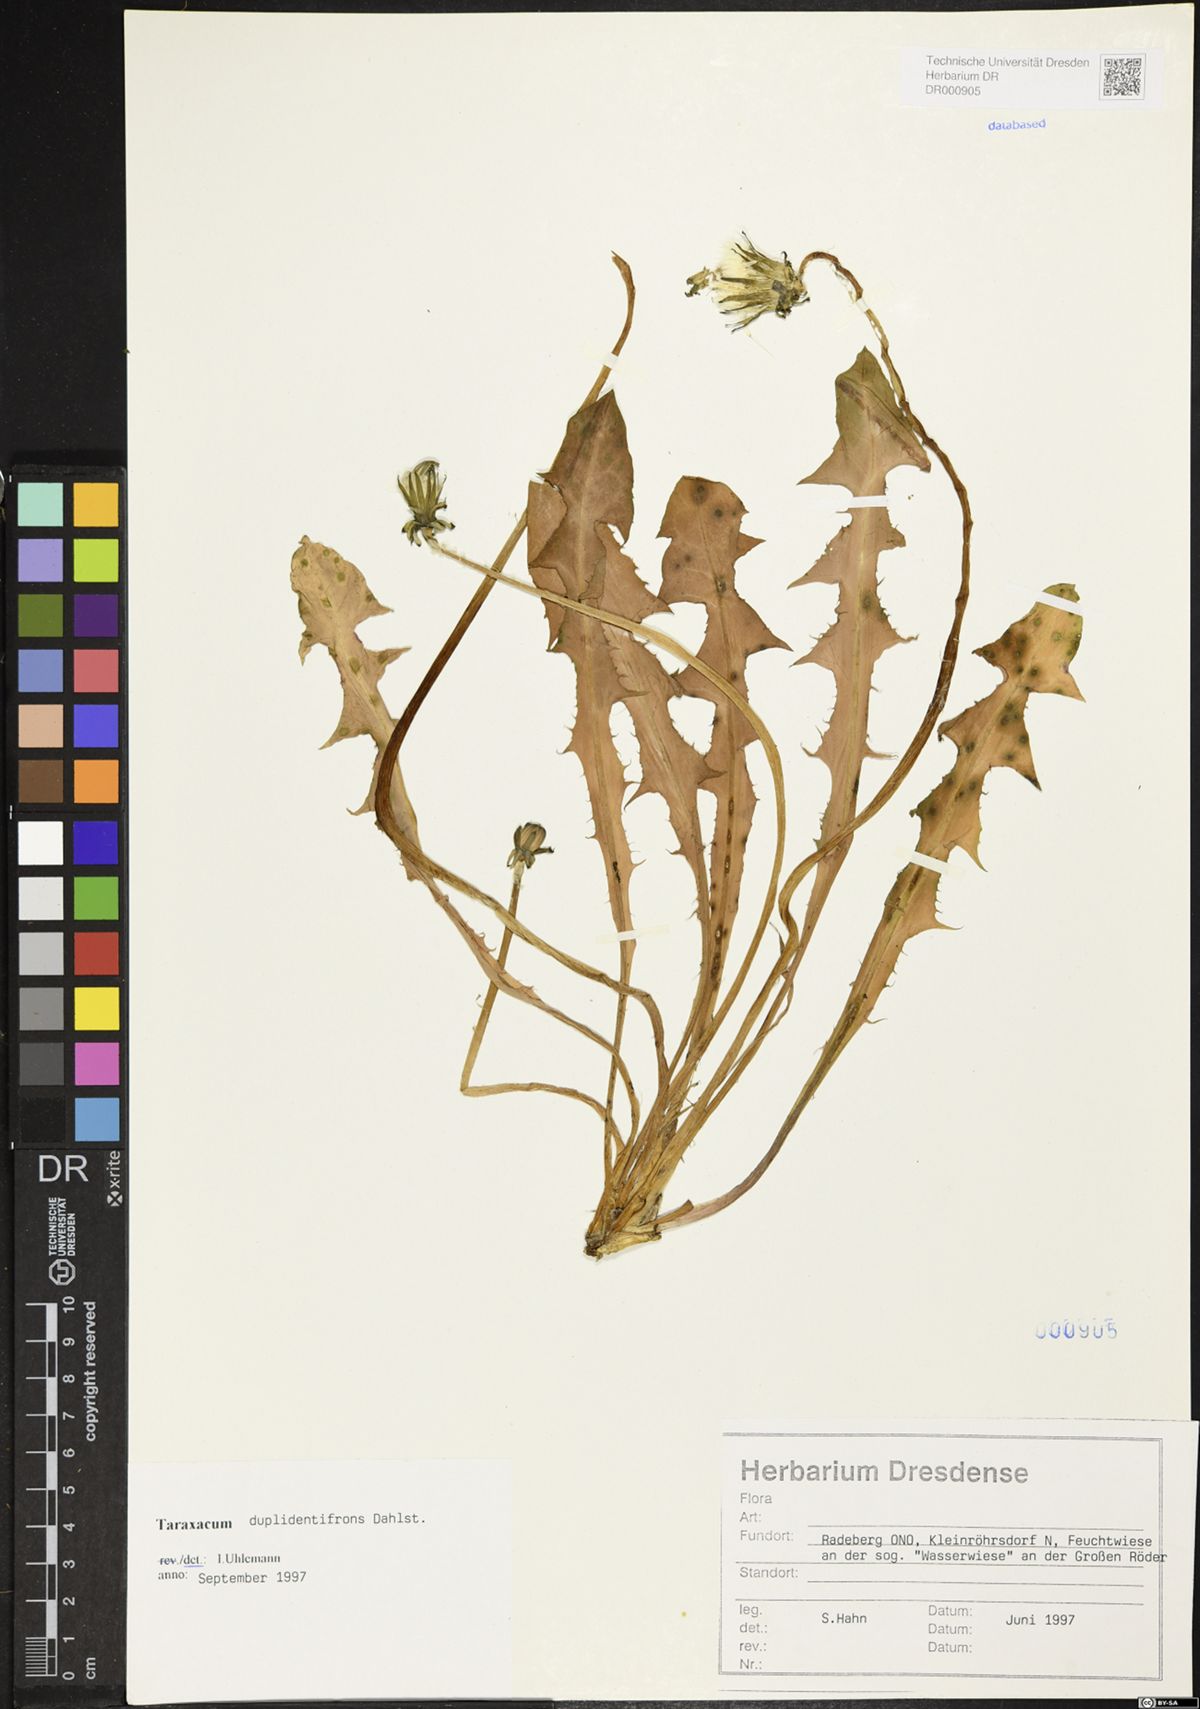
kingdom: Plantae
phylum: Tracheophyta
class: Magnoliopsida
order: Asterales
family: Asteraceae
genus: Taraxacum
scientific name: Taraxacum duplidentifrons
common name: Double-toothed dandelion
